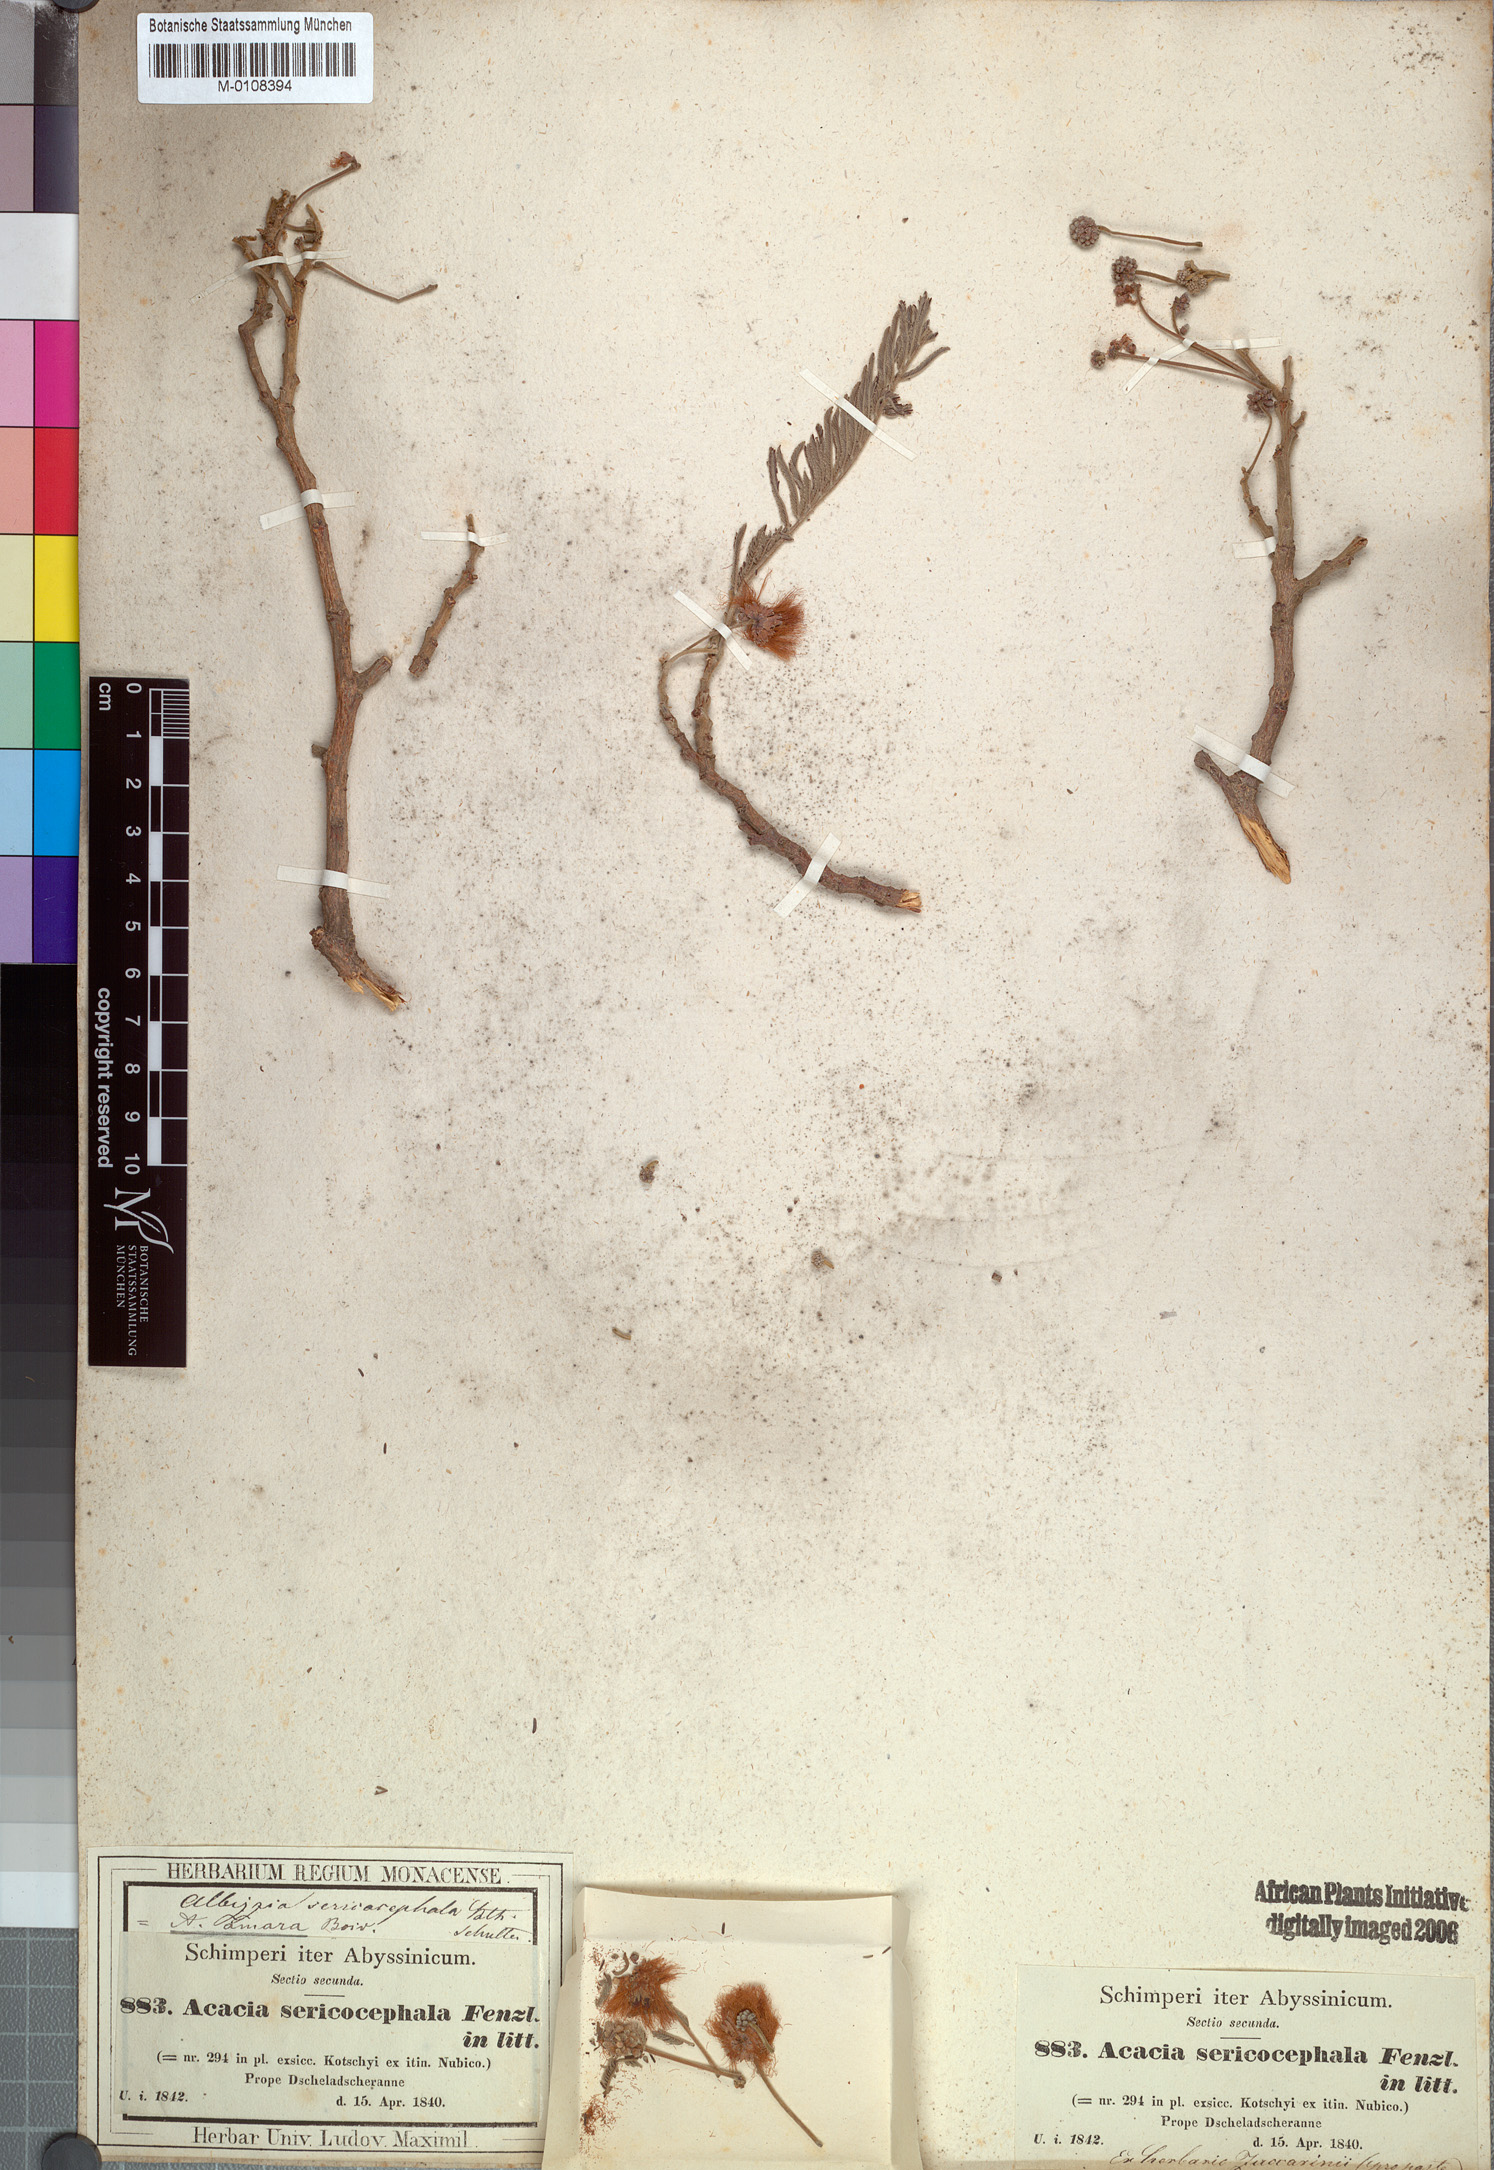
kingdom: Plantae
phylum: Tracheophyta
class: Magnoliopsida
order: Fabales
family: Fabaceae
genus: Albizia
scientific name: Albizia amara
